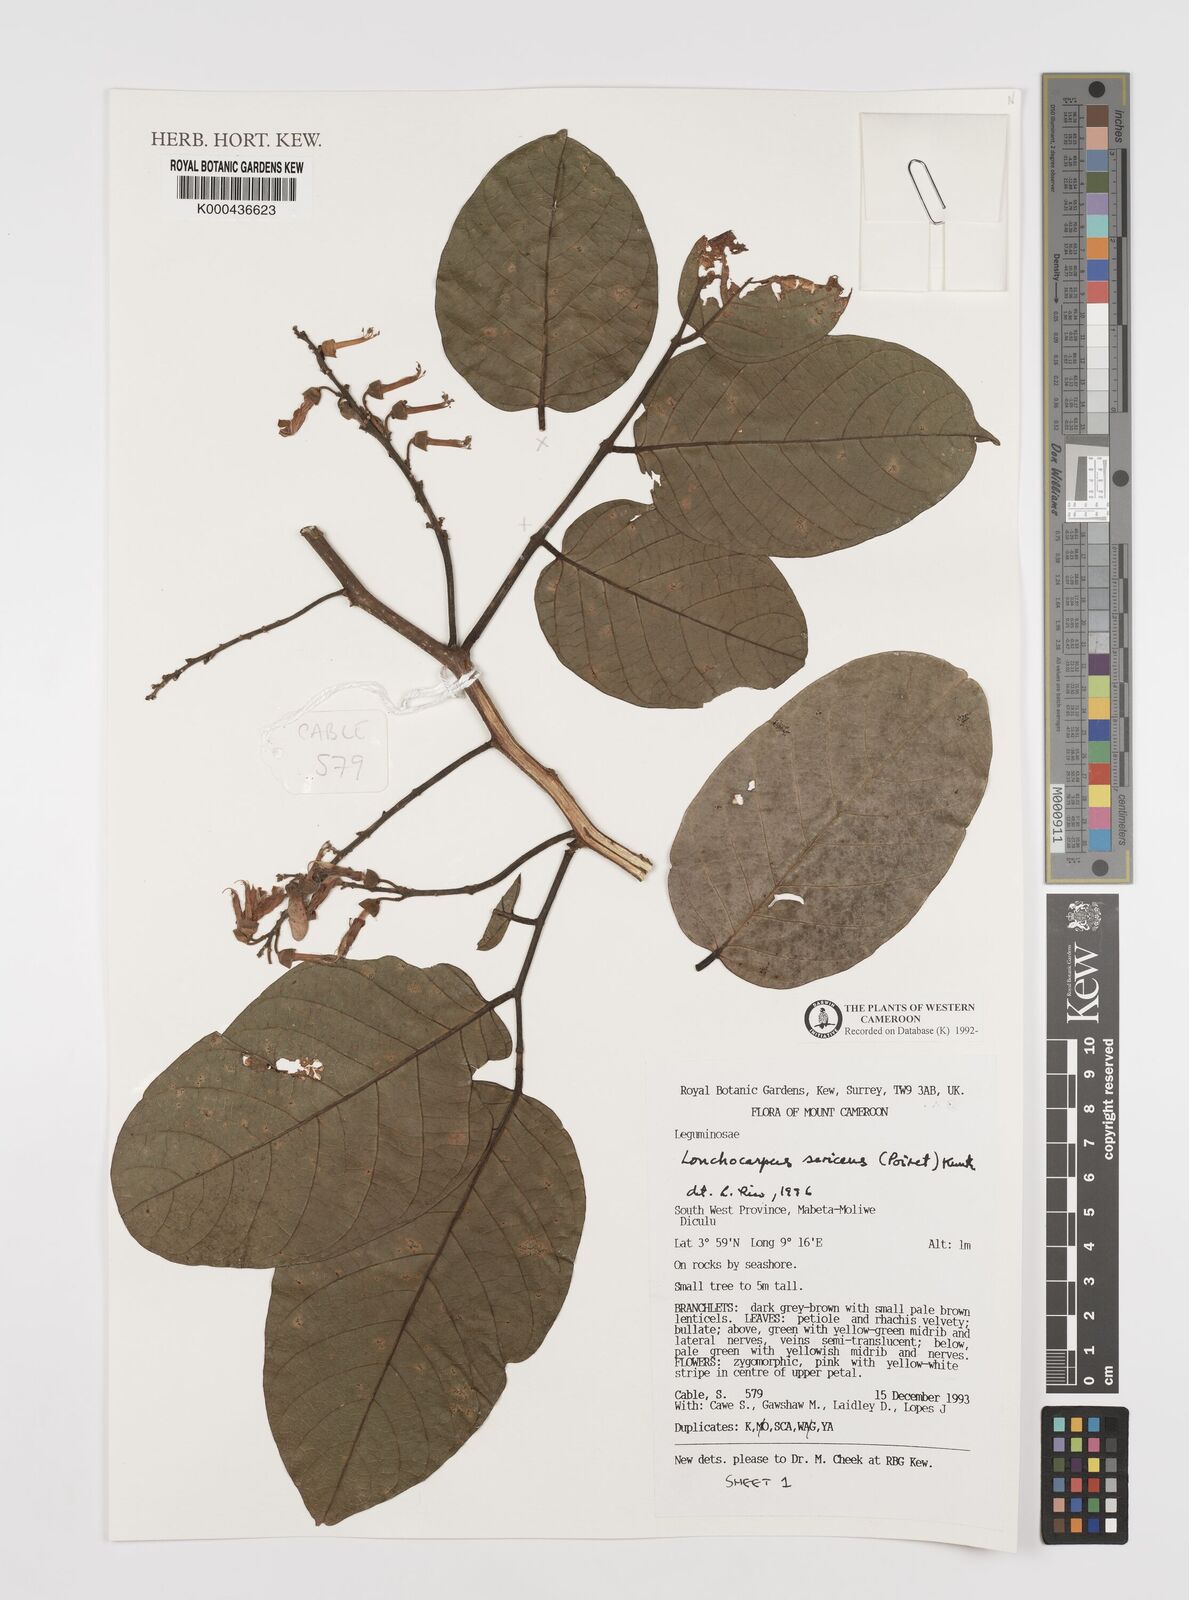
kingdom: Plantae
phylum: Tracheophyta
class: Magnoliopsida
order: Fabales
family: Fabaceae
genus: Lonchocarpus
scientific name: Lonchocarpus
